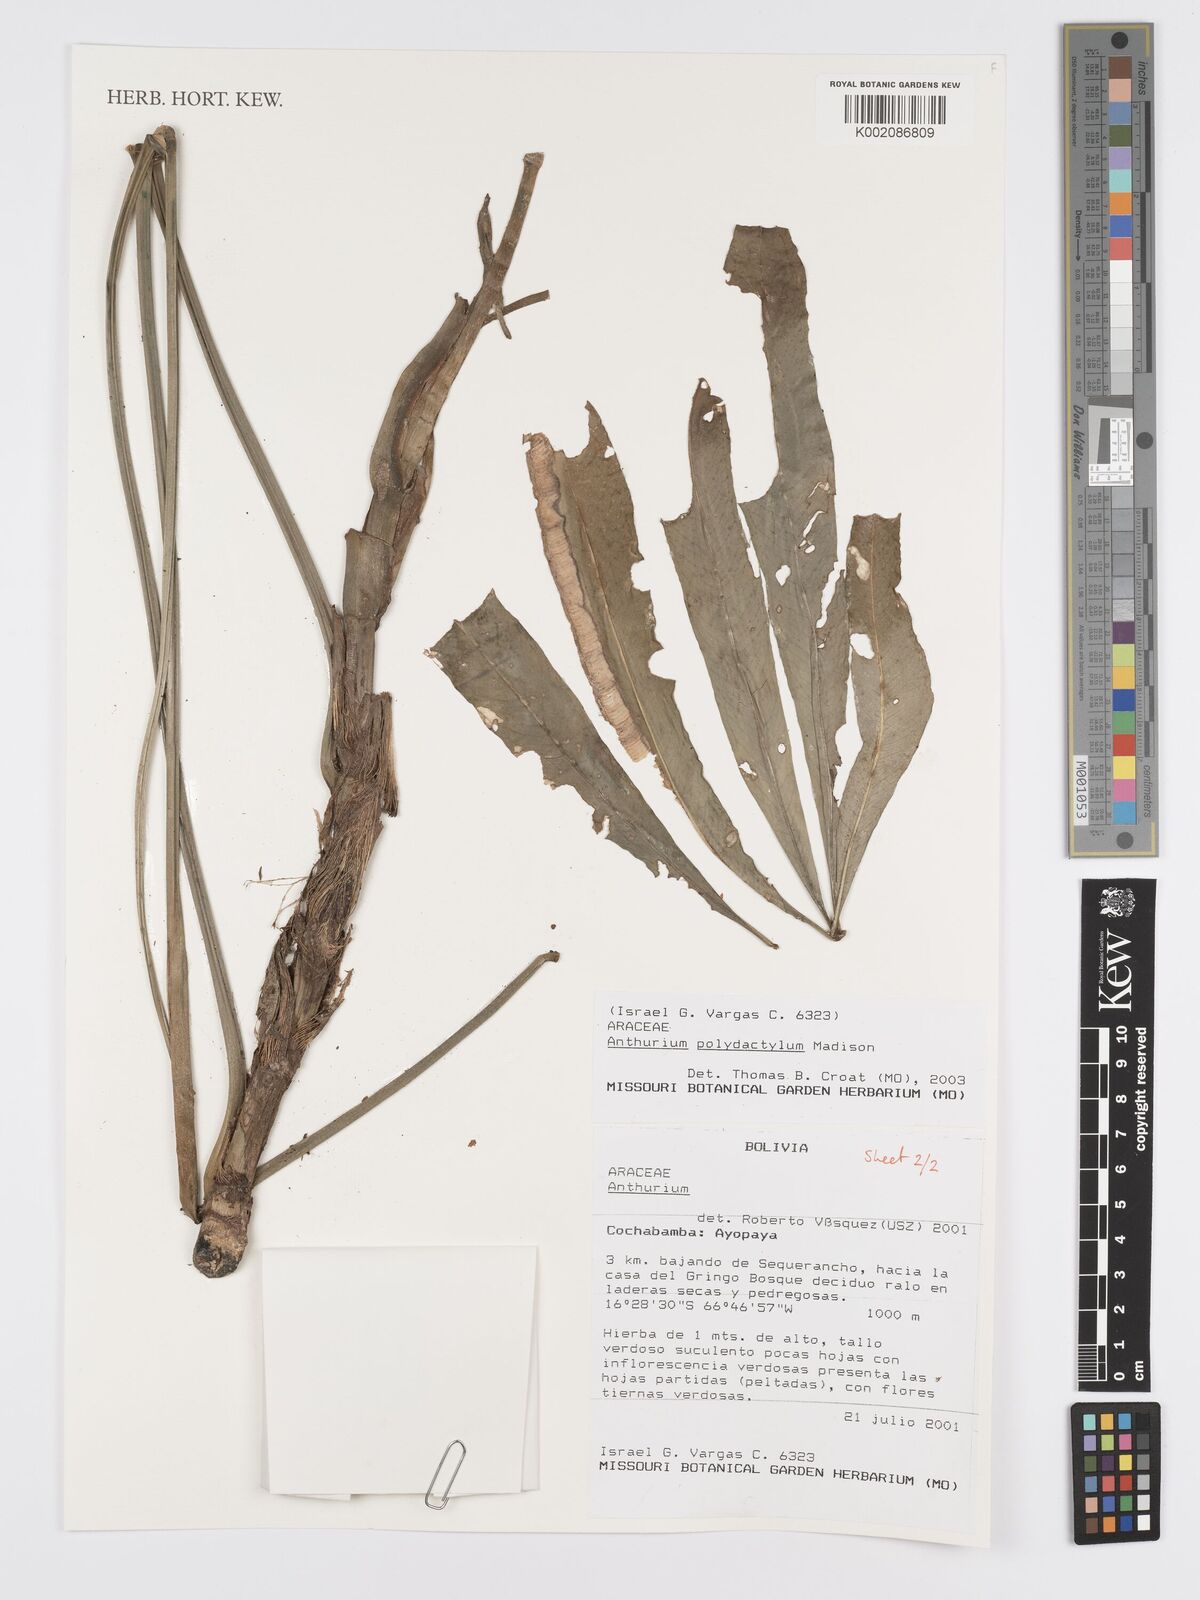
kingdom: Plantae
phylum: Tracheophyta
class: Liliopsida
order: Alismatales
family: Araceae
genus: Anthurium
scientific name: Anthurium polydactylum
